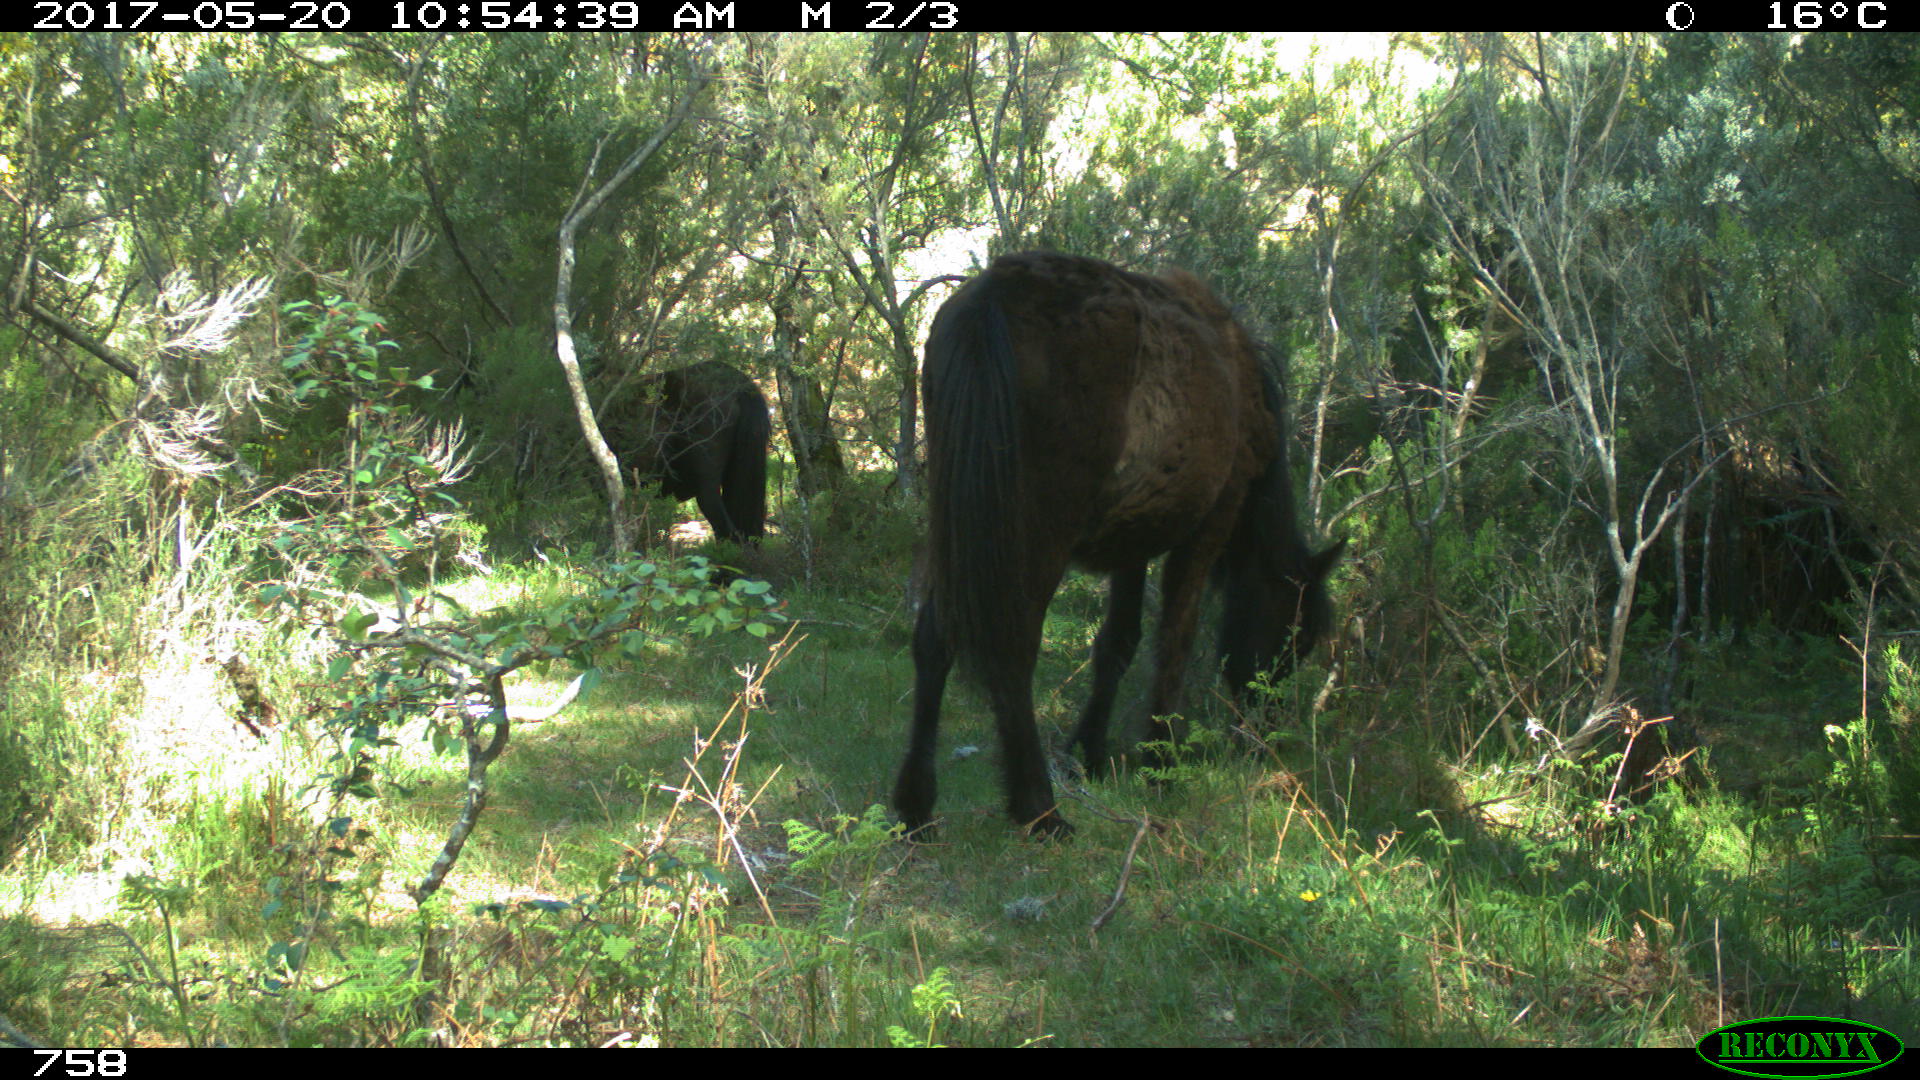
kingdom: Animalia
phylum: Chordata
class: Mammalia
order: Perissodactyla
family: Equidae
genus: Equus
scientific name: Equus caballus
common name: Horse
